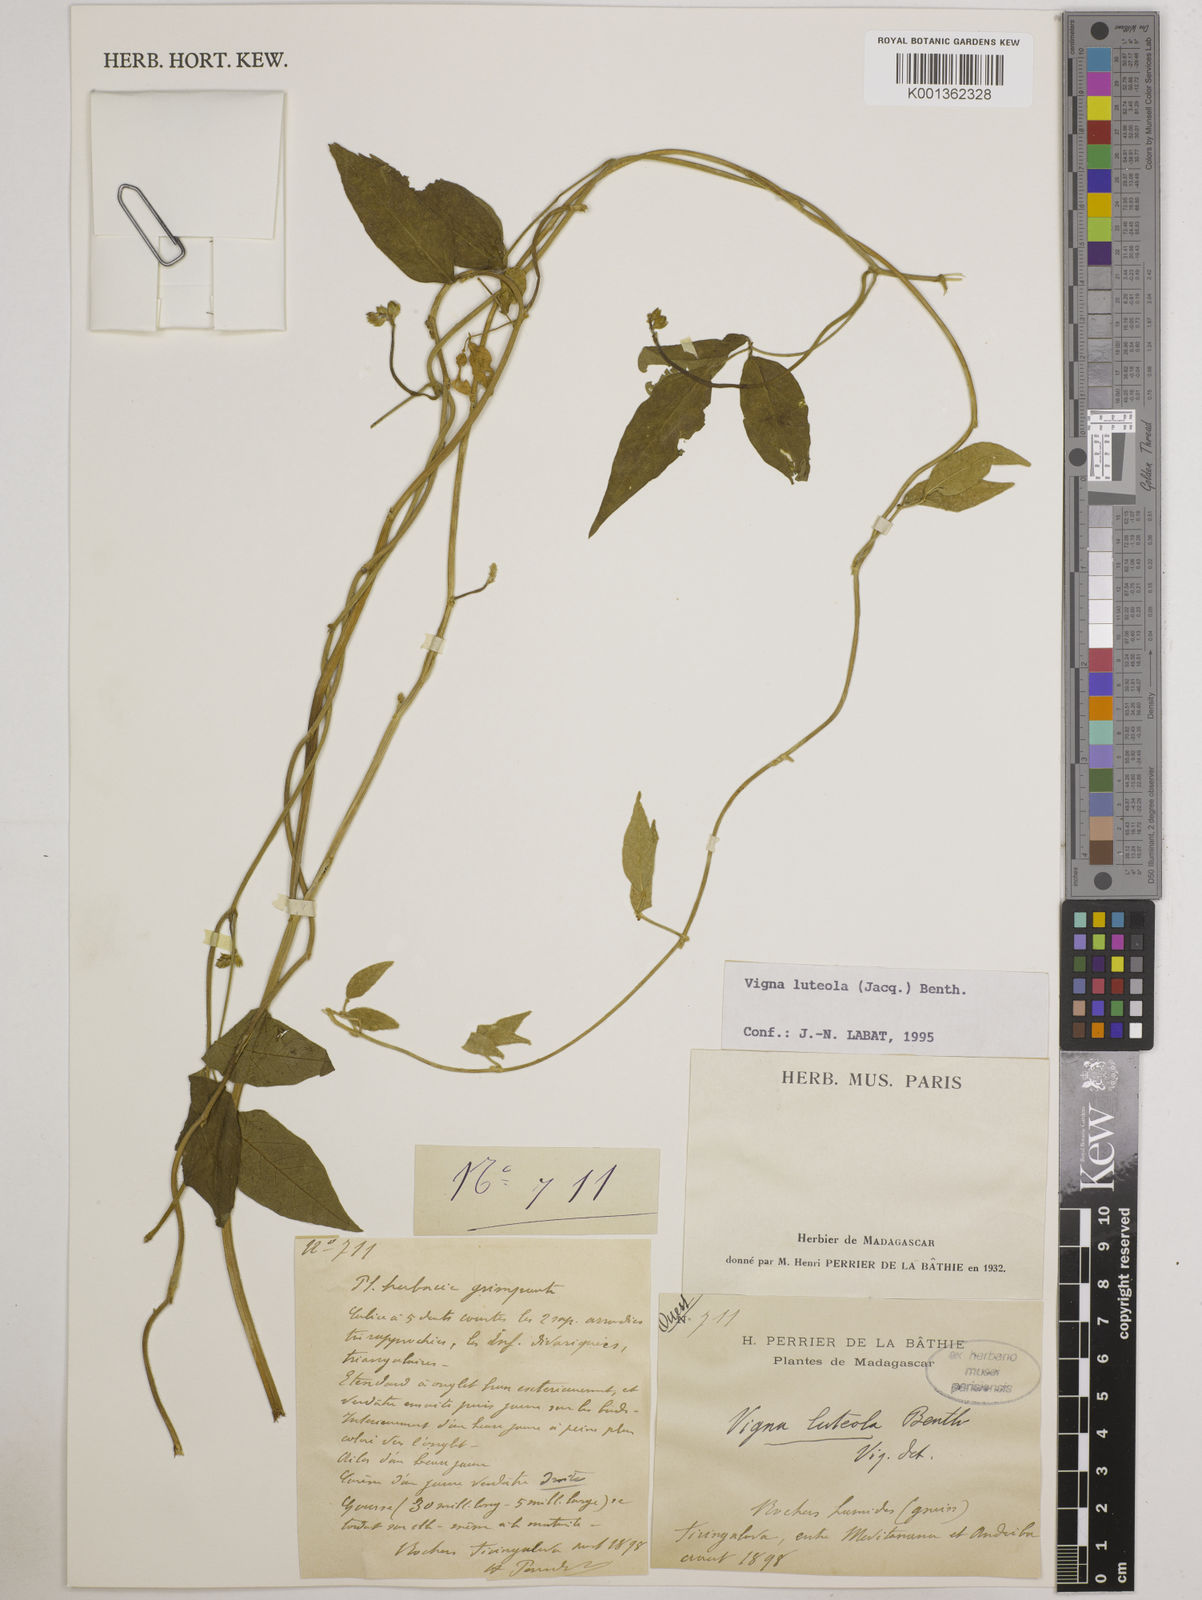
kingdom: Plantae
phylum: Tracheophyta
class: Magnoliopsida
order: Fabales
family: Fabaceae
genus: Vigna
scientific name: Vigna luteola
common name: Hairypod cowpea
